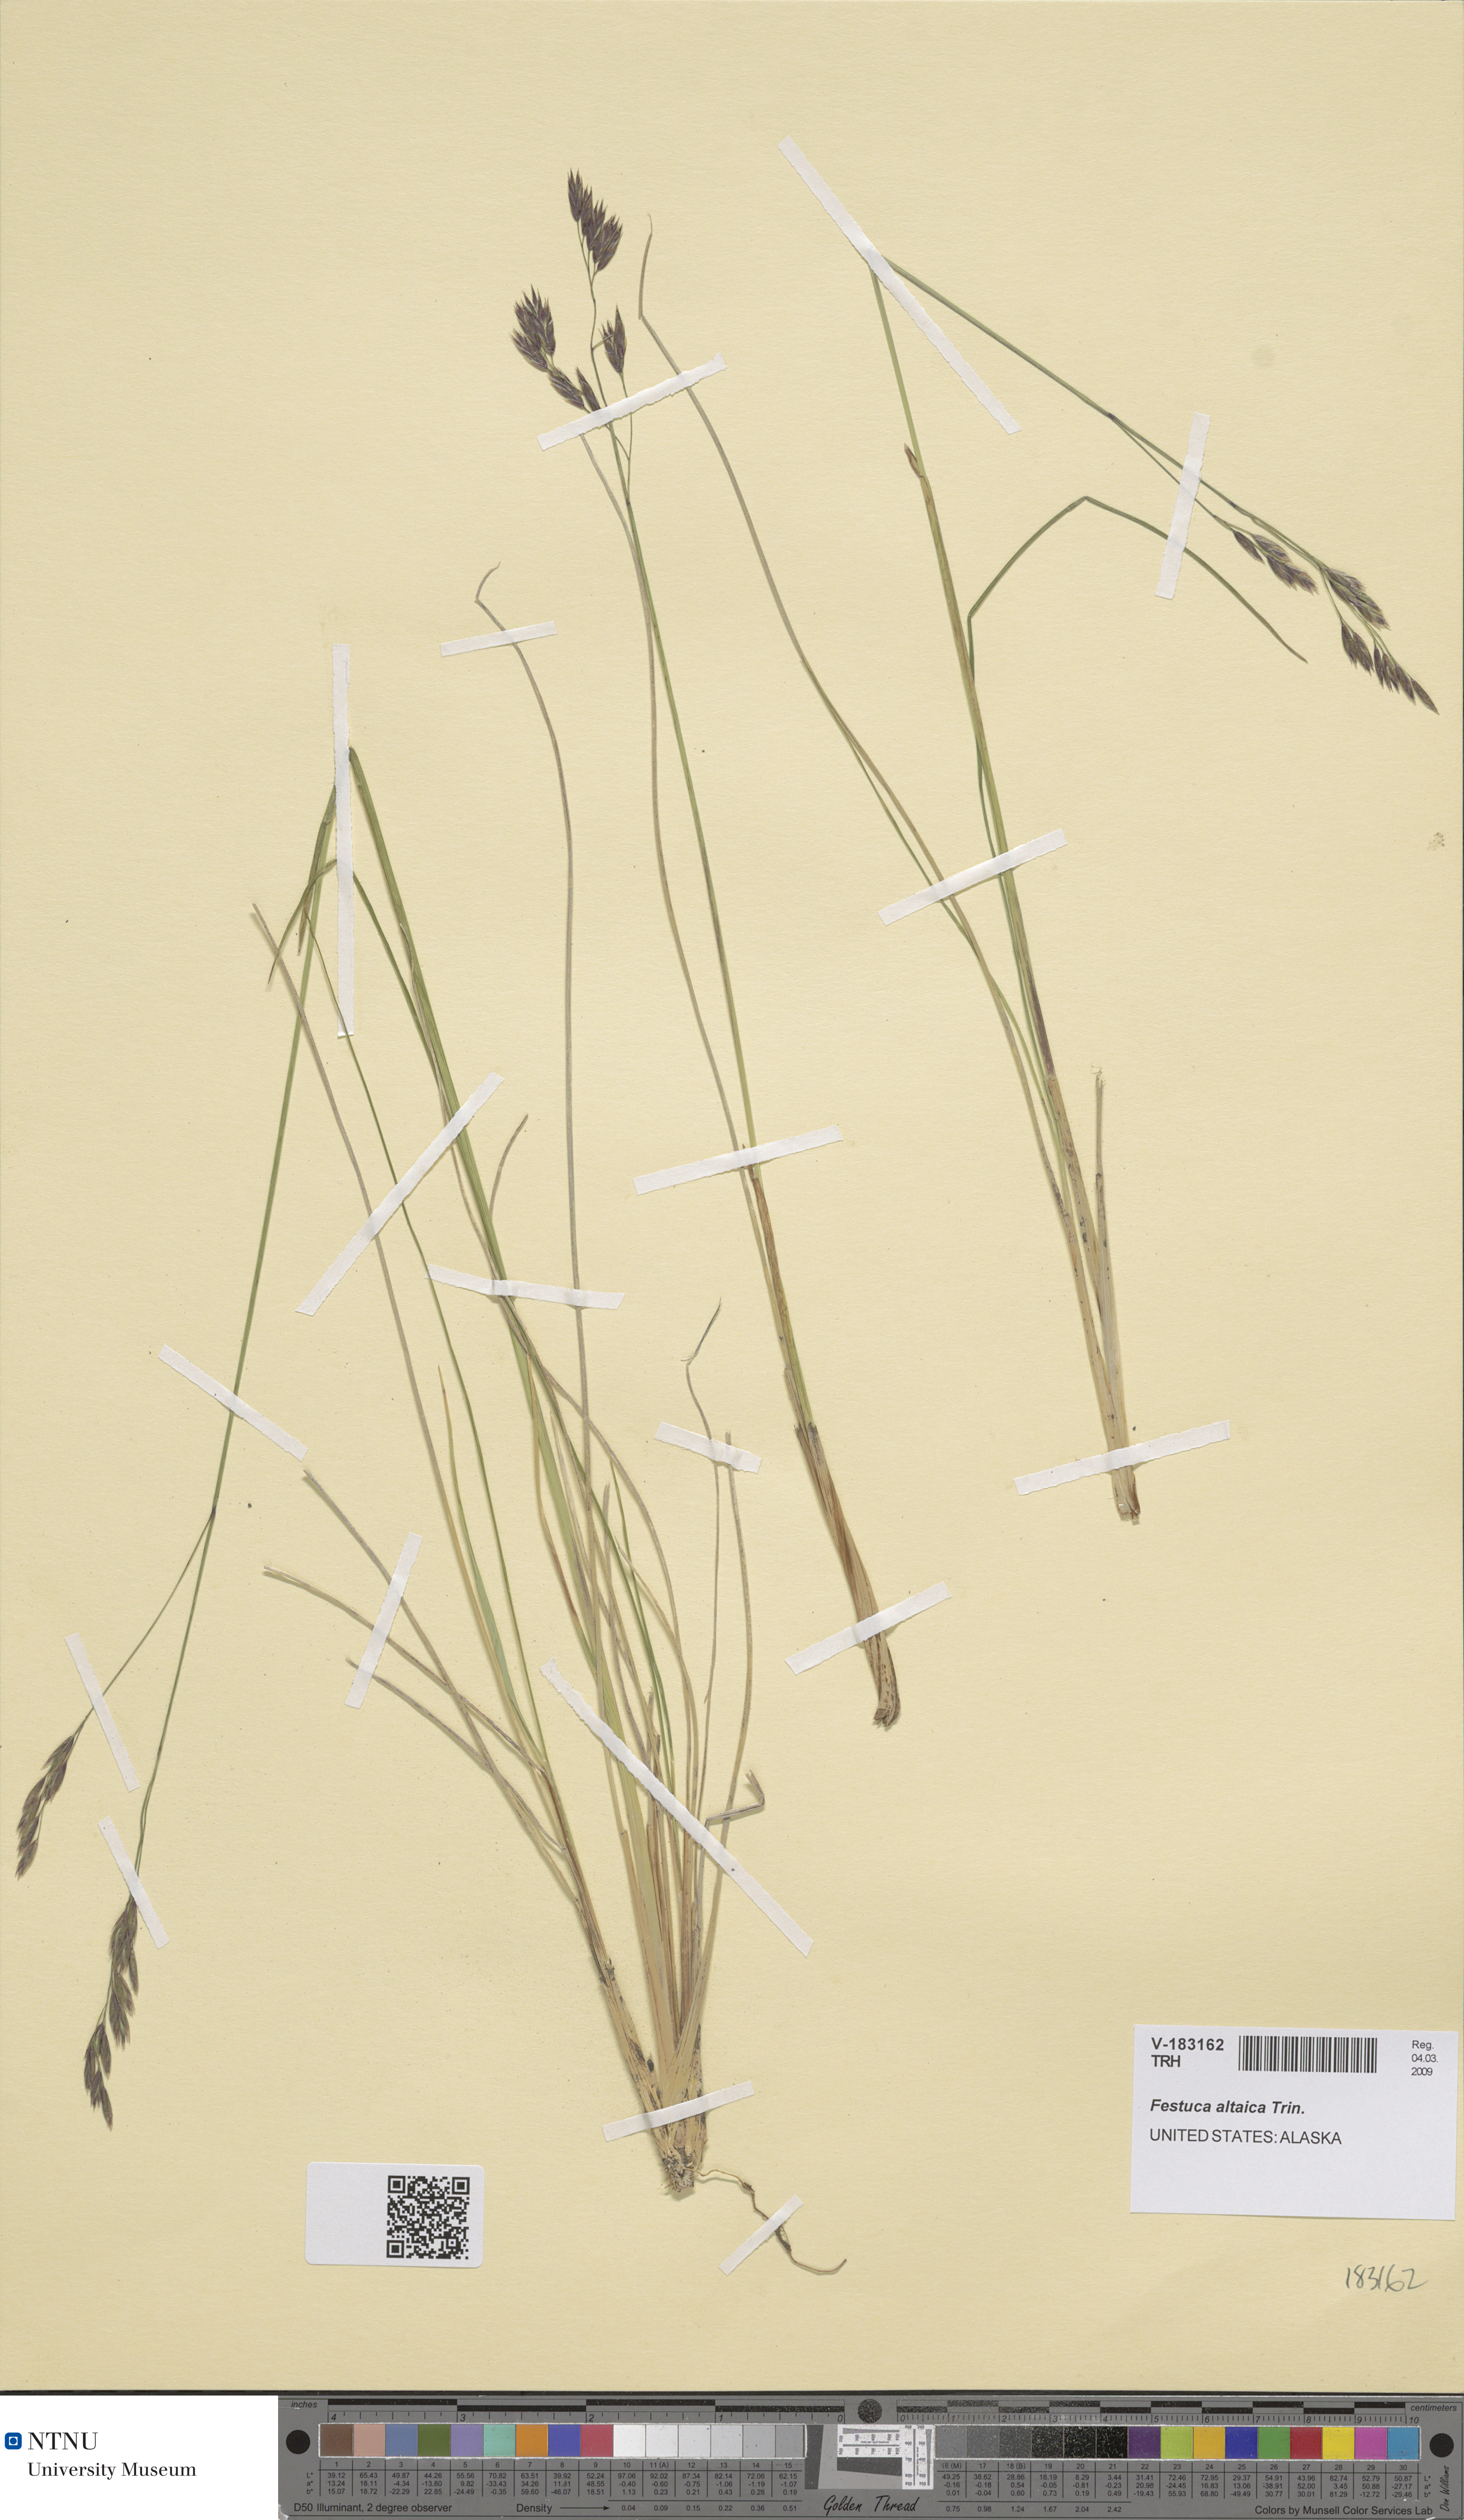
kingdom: Plantae
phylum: Tracheophyta
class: Liliopsida
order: Poales
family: Poaceae
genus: Festuca
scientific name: Festuca altaica
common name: Northern rough fescue
